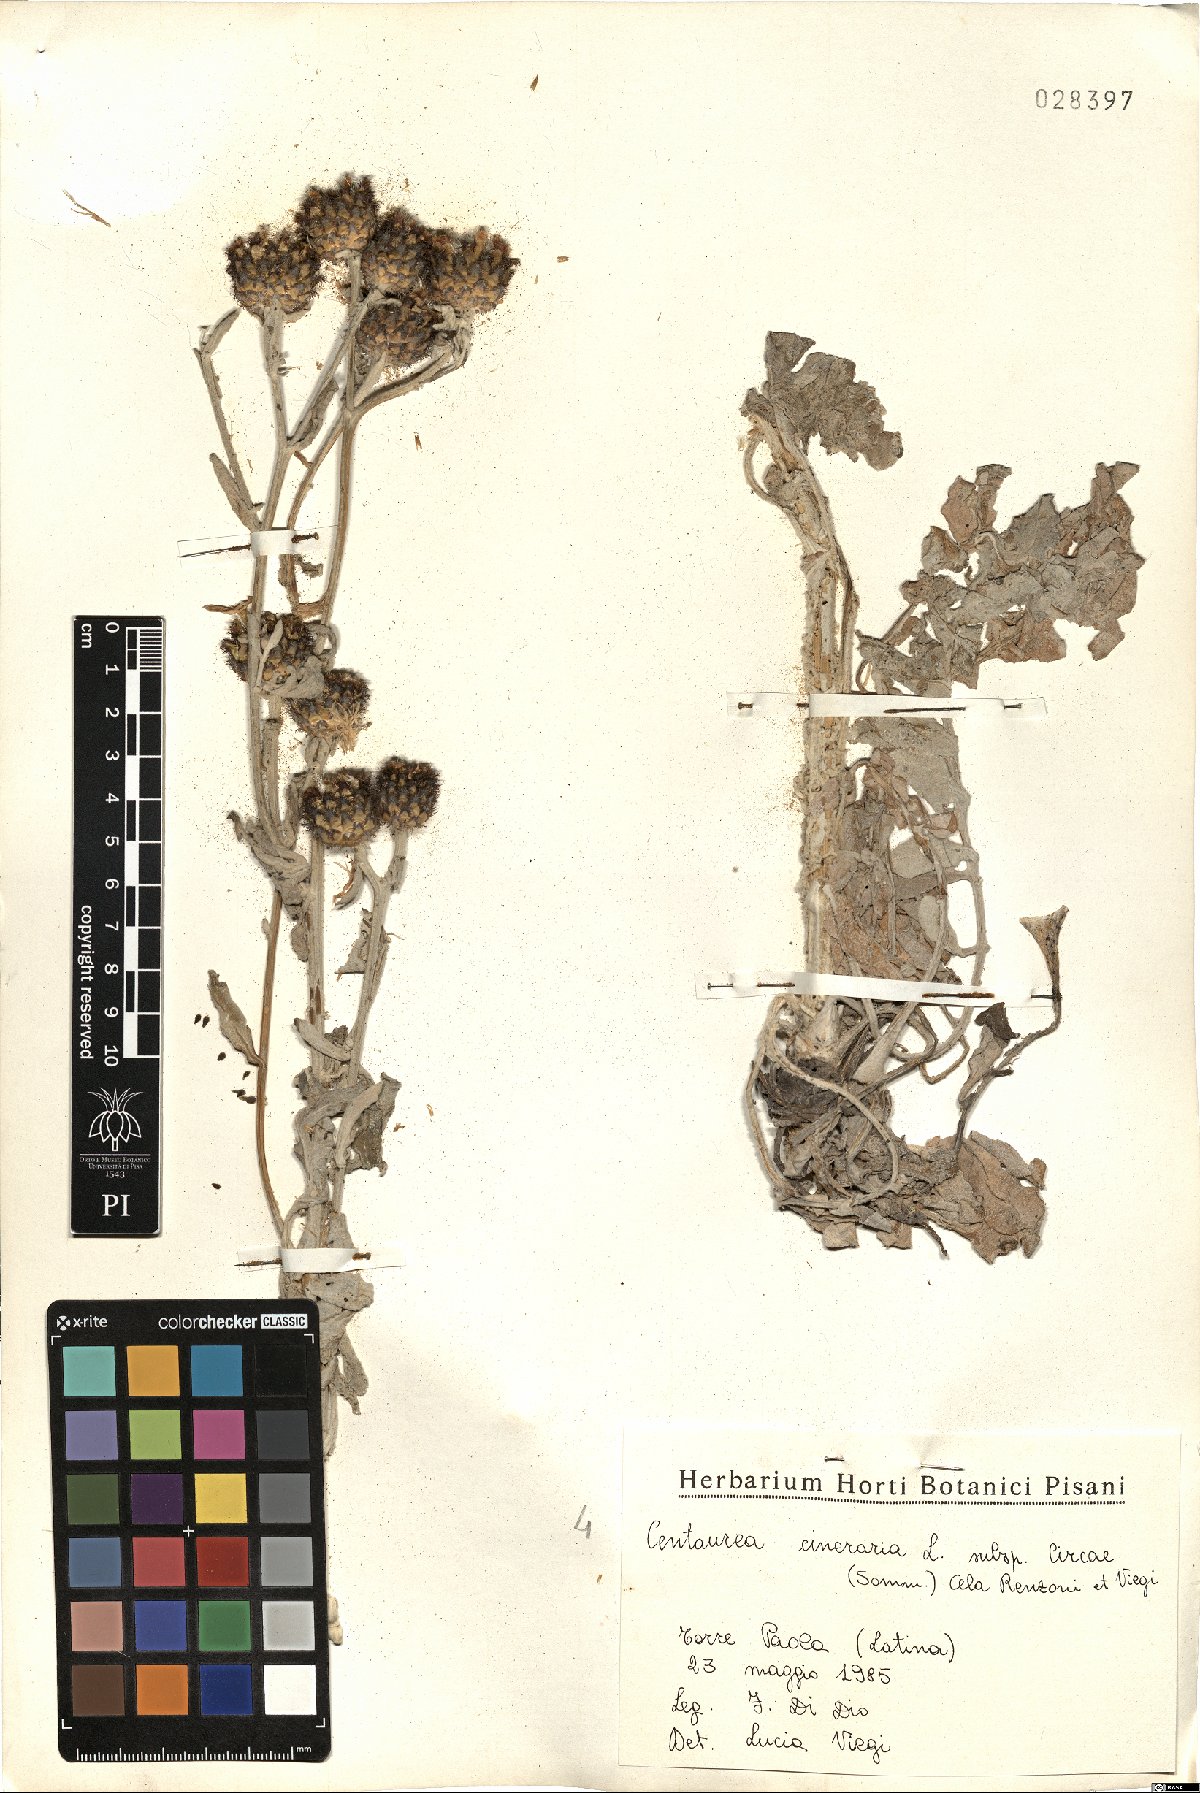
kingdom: Plantae
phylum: Tracheophyta
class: Magnoliopsida
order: Asterales
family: Asteraceae
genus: Centaurea
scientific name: Centaurea cineraria
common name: Dusty miller
